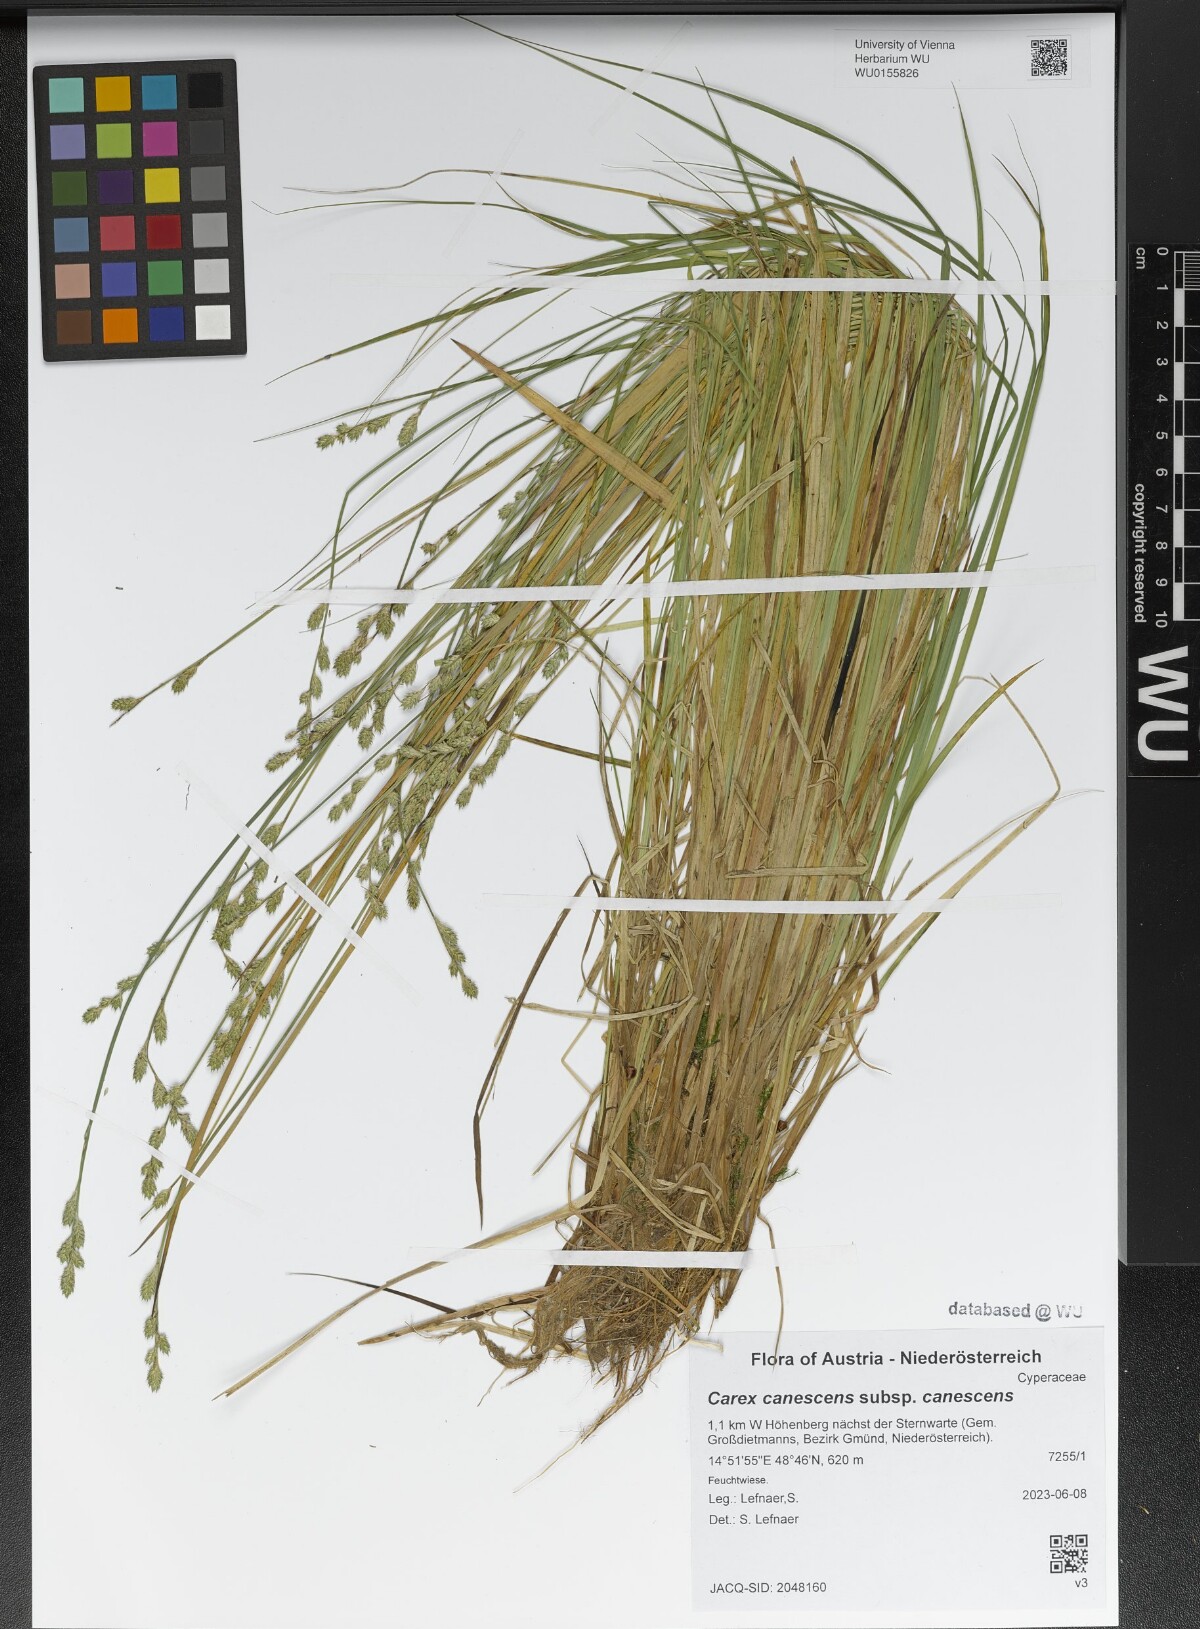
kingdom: Plantae
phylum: Tracheophyta
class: Liliopsida
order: Poales
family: Cyperaceae
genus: Carex
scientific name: Carex canescens
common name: White sedge
